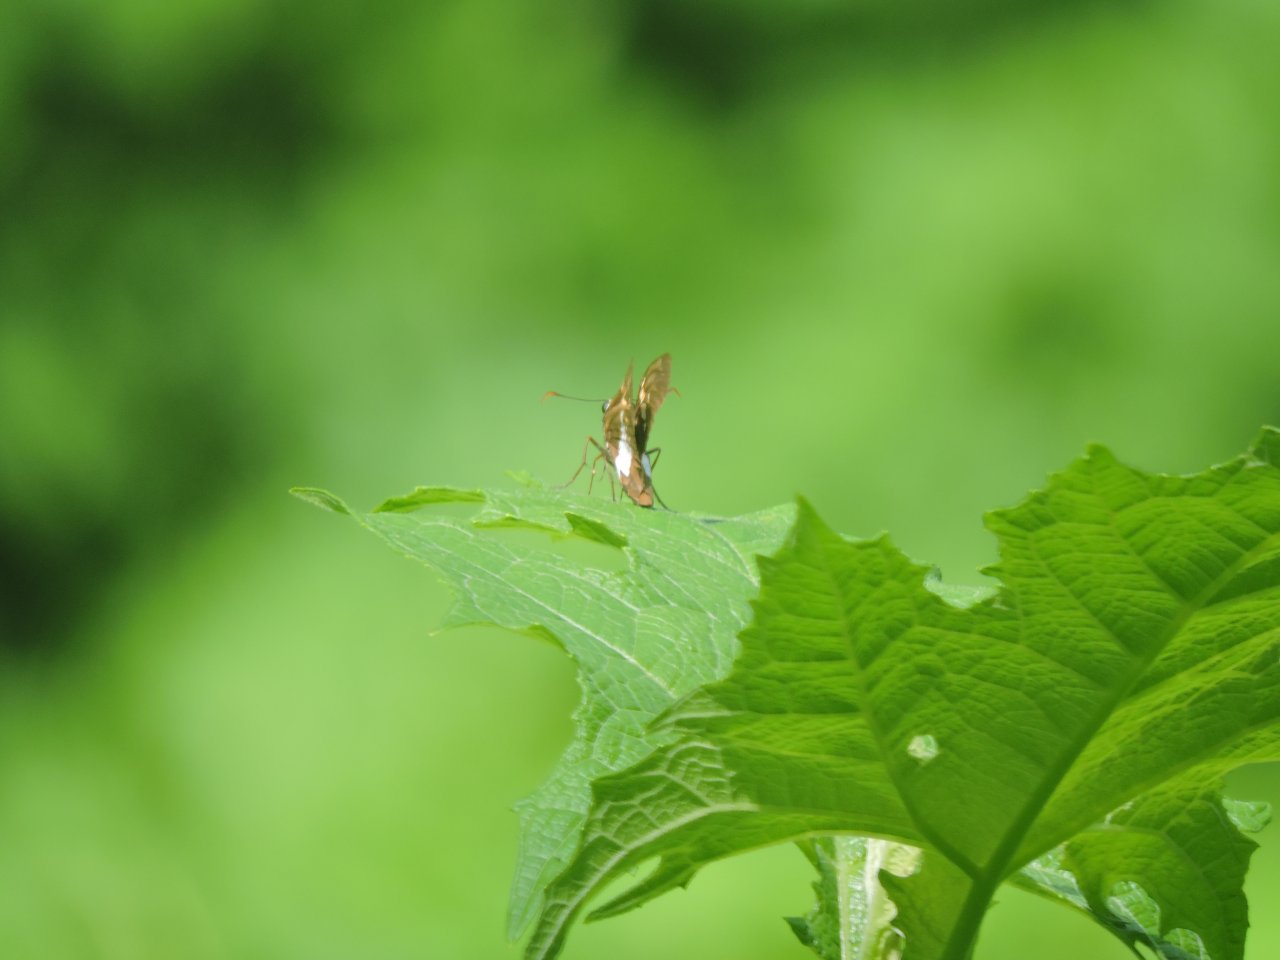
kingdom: Animalia
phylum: Arthropoda
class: Insecta
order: Lepidoptera
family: Hesperiidae
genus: Epargyreus
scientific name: Epargyreus clarus
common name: Silver-spotted Skipper
